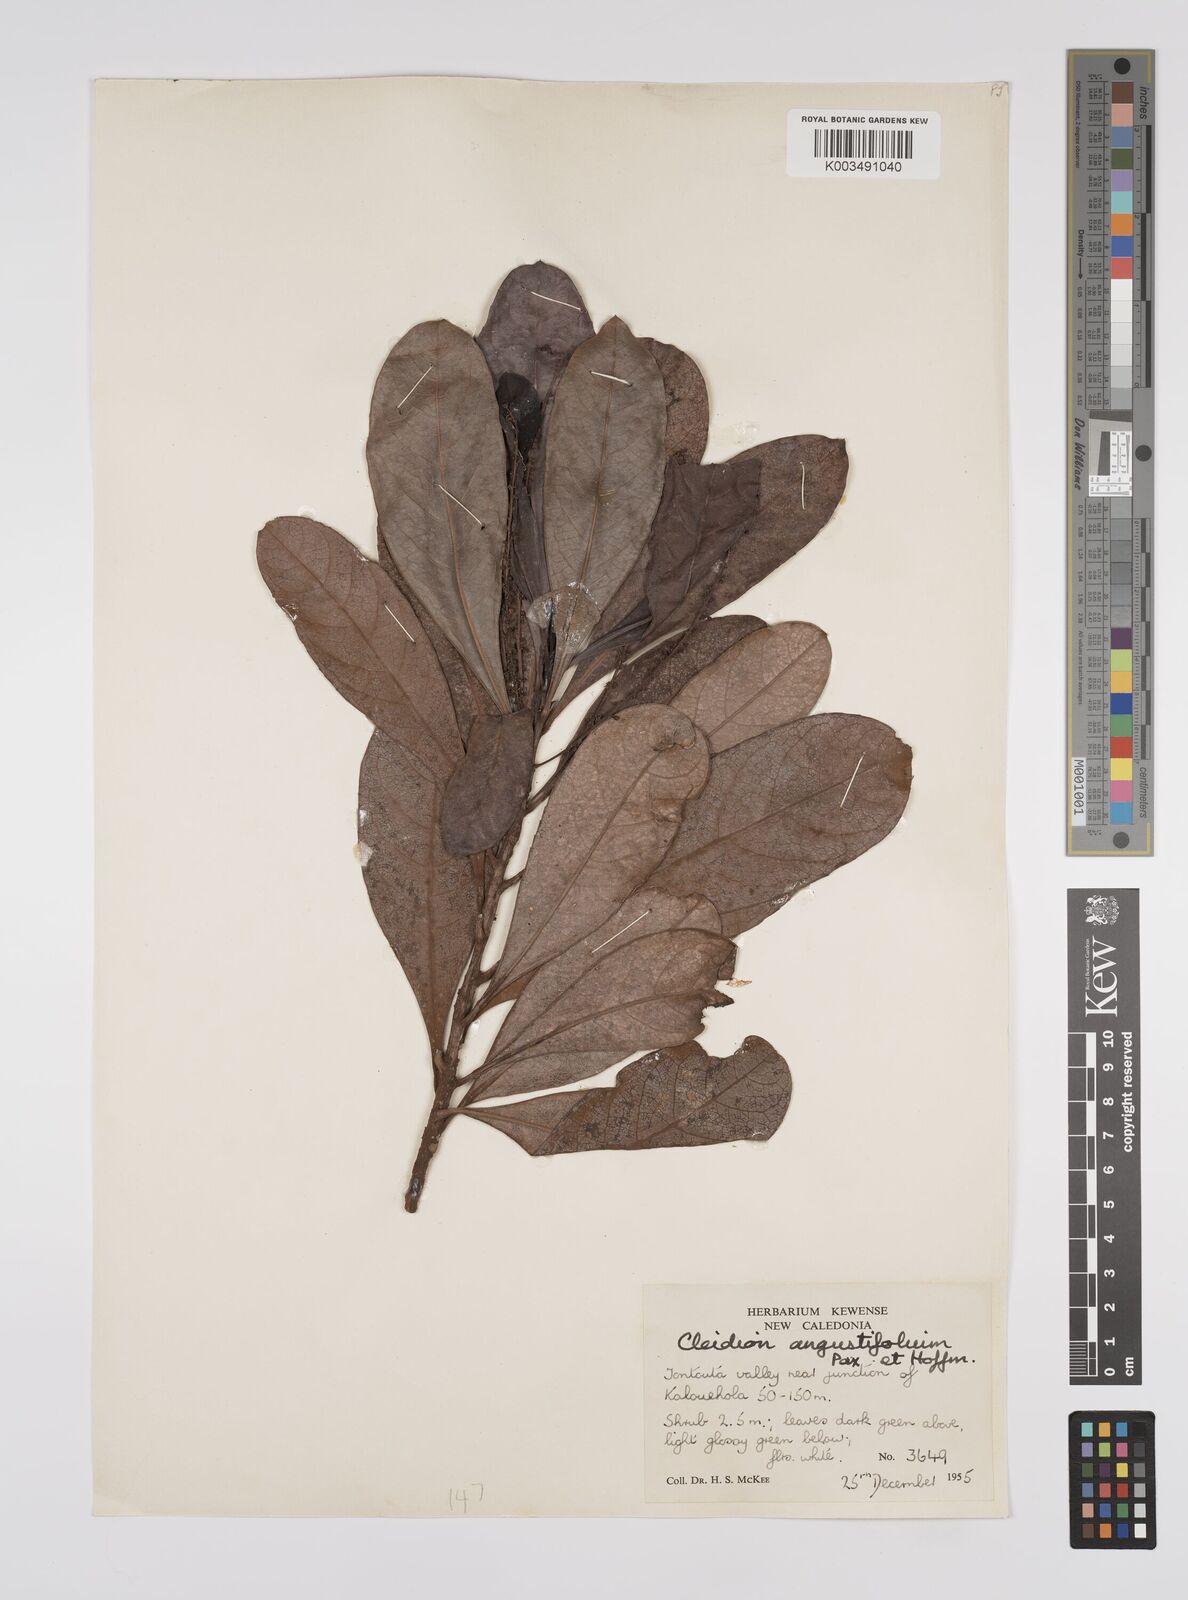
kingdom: Plantae
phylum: Tracheophyta
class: Magnoliopsida
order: Malpighiales
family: Euphorbiaceae
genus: Cleidion
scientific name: Cleidion vieillardii
